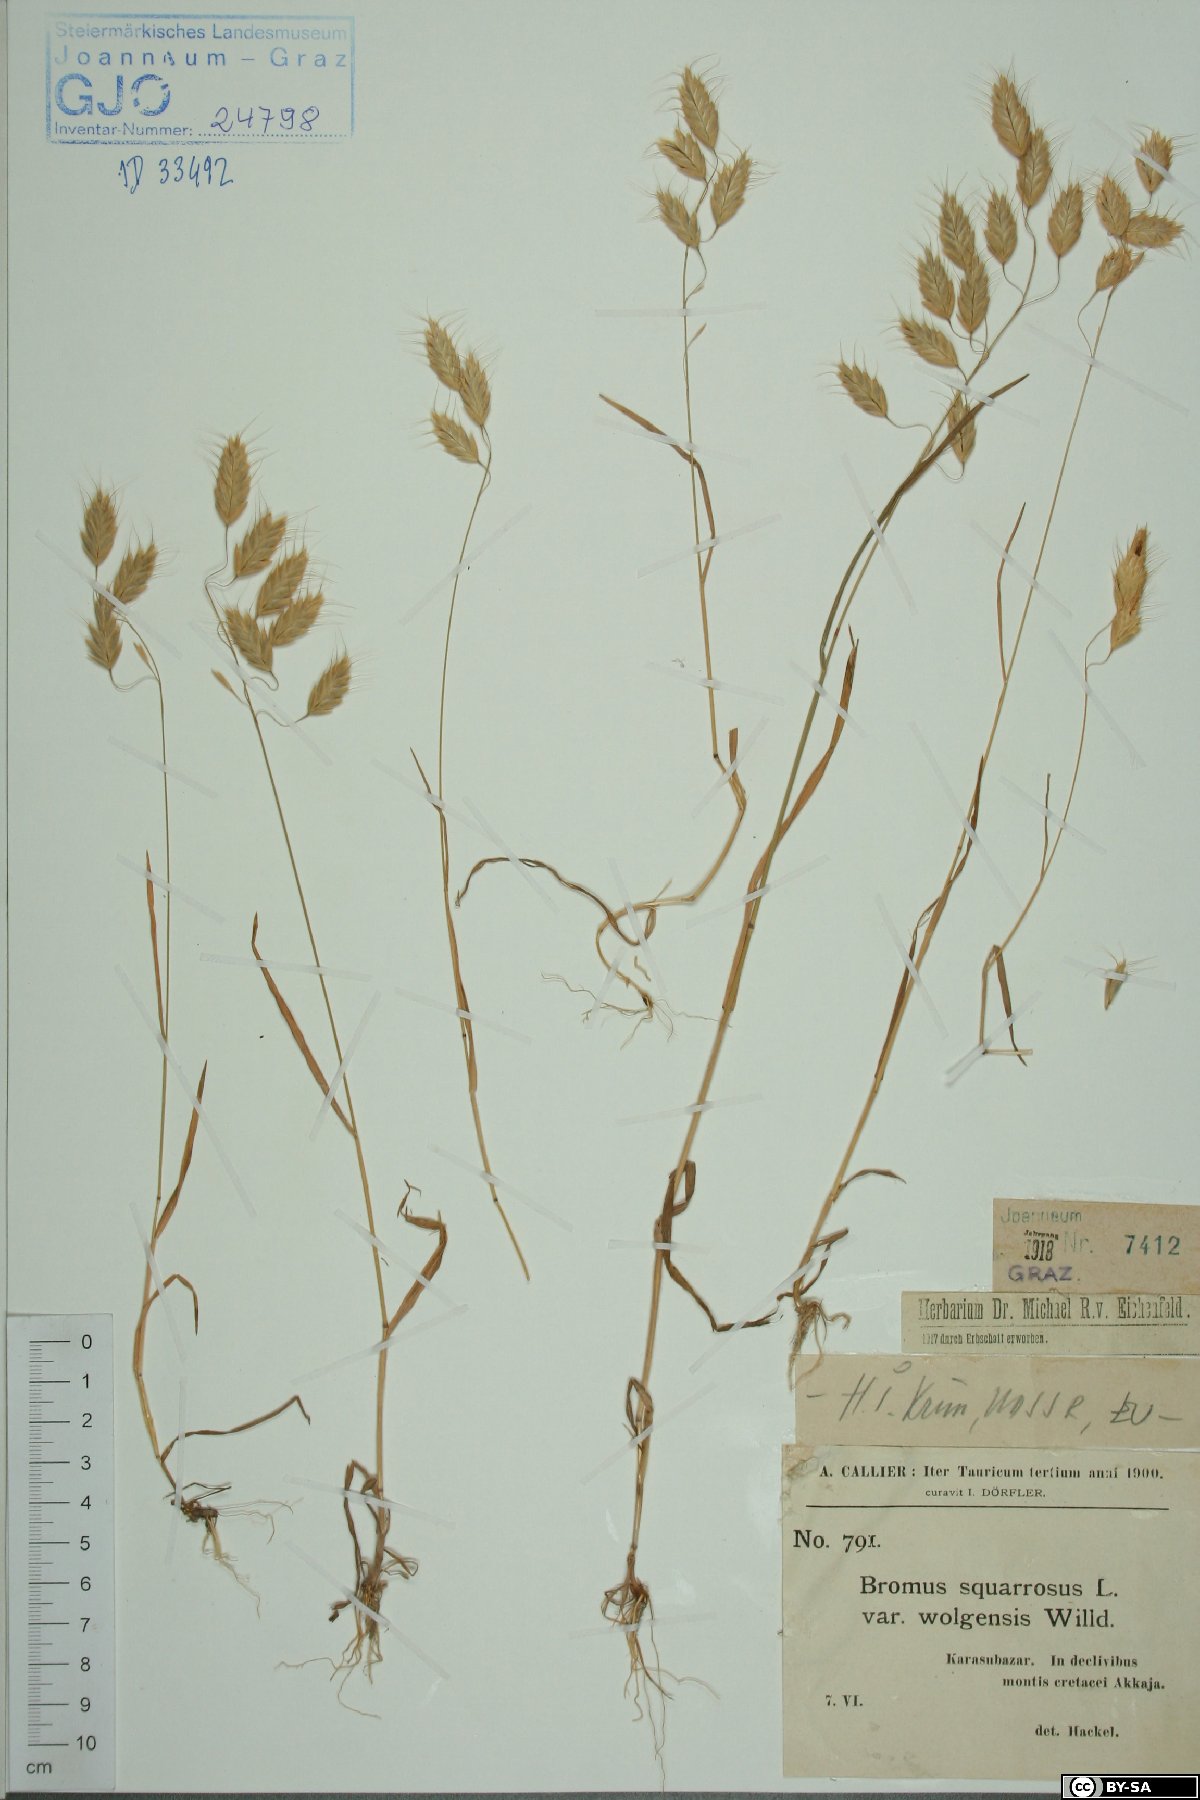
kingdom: Plantae
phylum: Tracheophyta
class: Liliopsida
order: Poales
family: Poaceae
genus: Bromus
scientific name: Bromus squarrosus
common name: Corn brome
